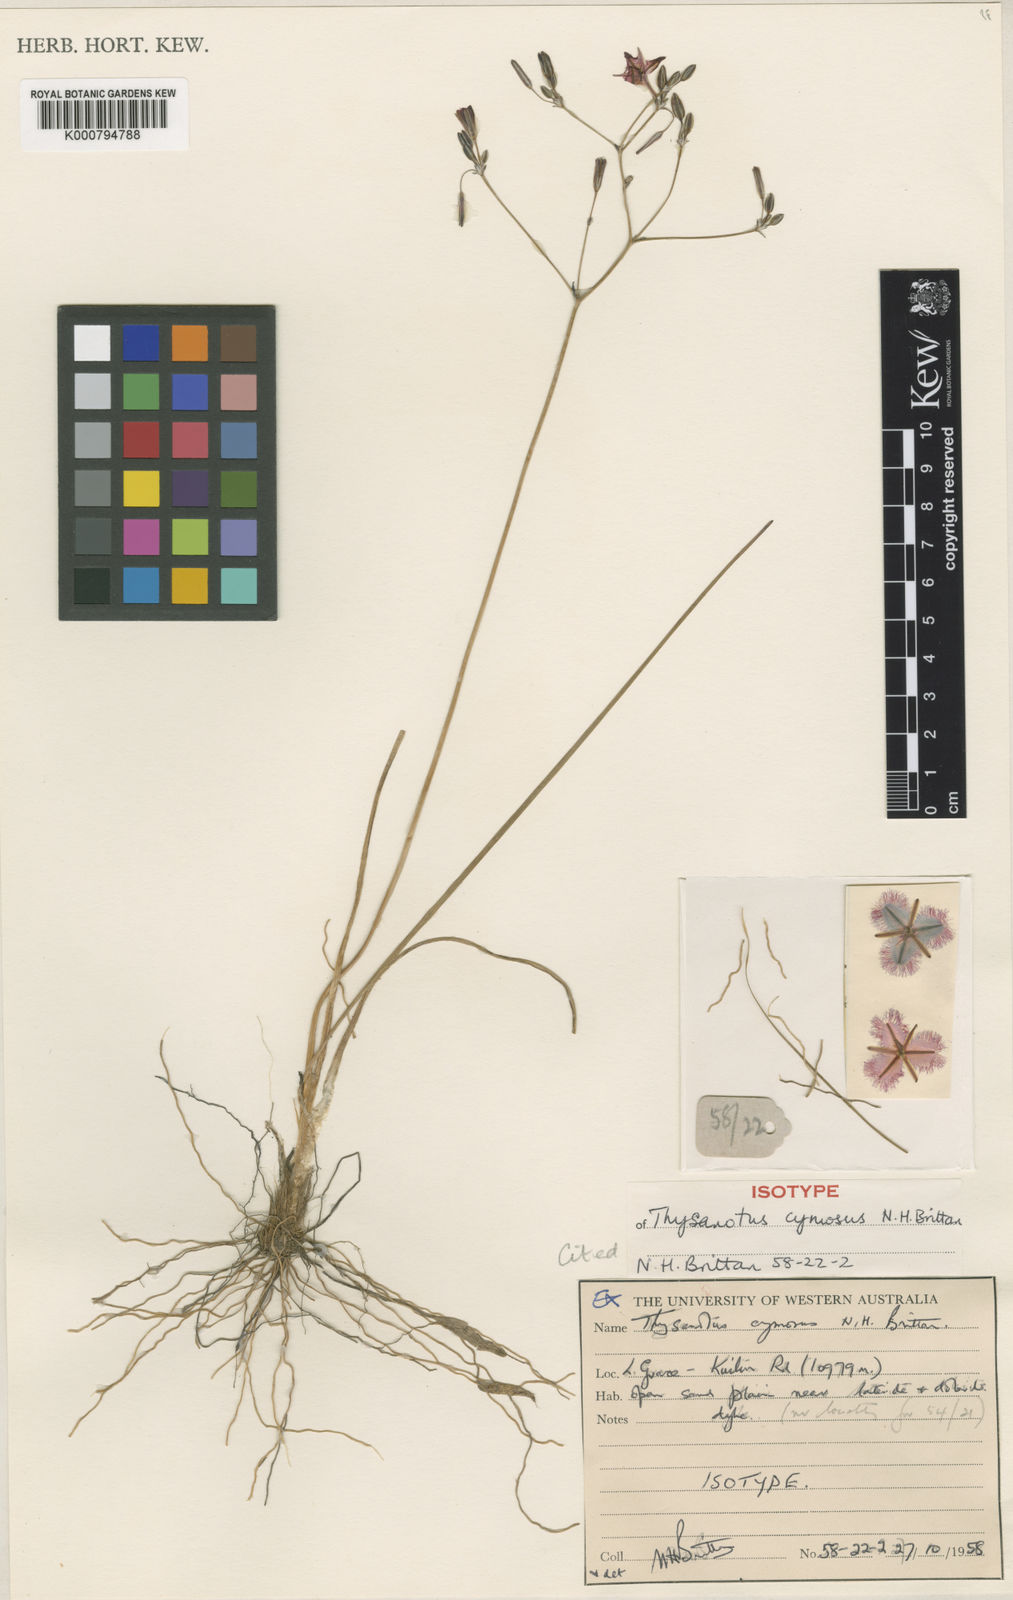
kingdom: Plantae
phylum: Tracheophyta
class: Liliopsida
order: Asparagales
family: Asparagaceae
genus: Thysanotus
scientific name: Thysanotus cymosus
